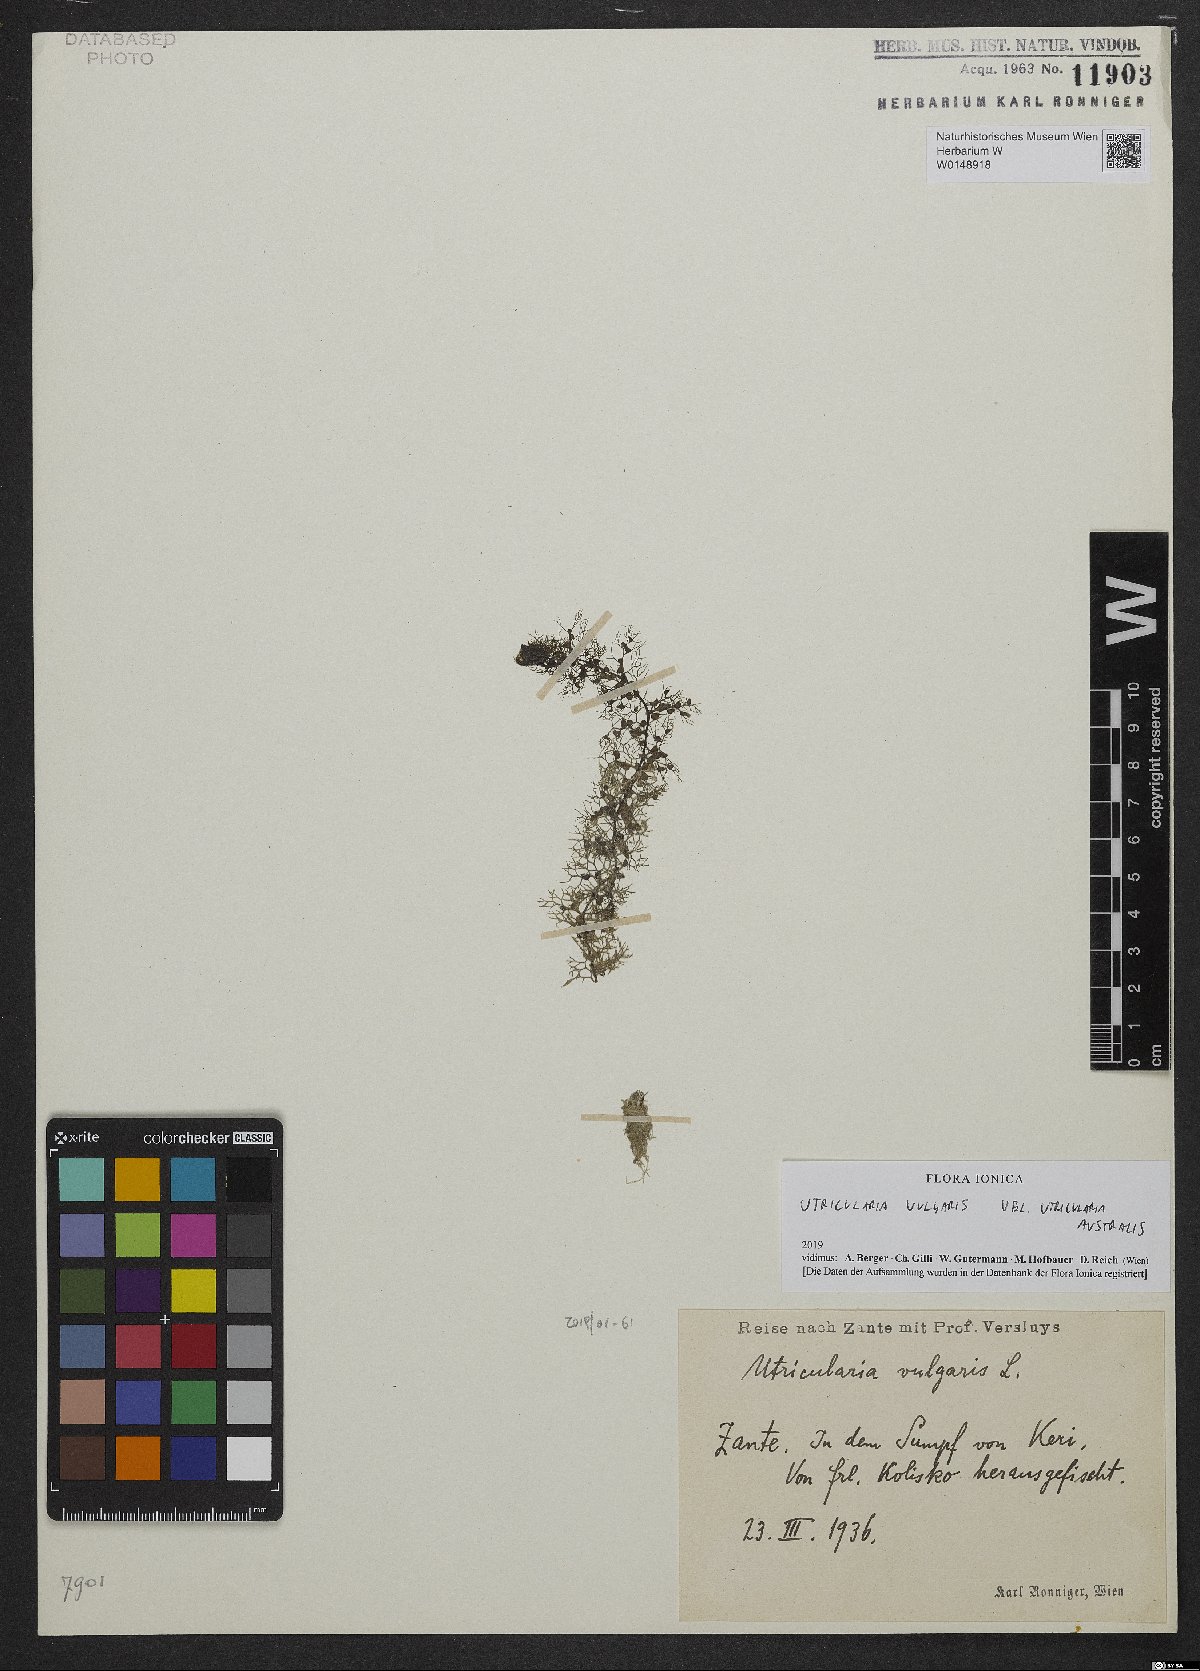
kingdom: Plantae
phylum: Tracheophyta
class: Magnoliopsida
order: Lamiales
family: Lentibulariaceae
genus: Utricularia
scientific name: Utricularia vulgaris
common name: Greater bladderwort
